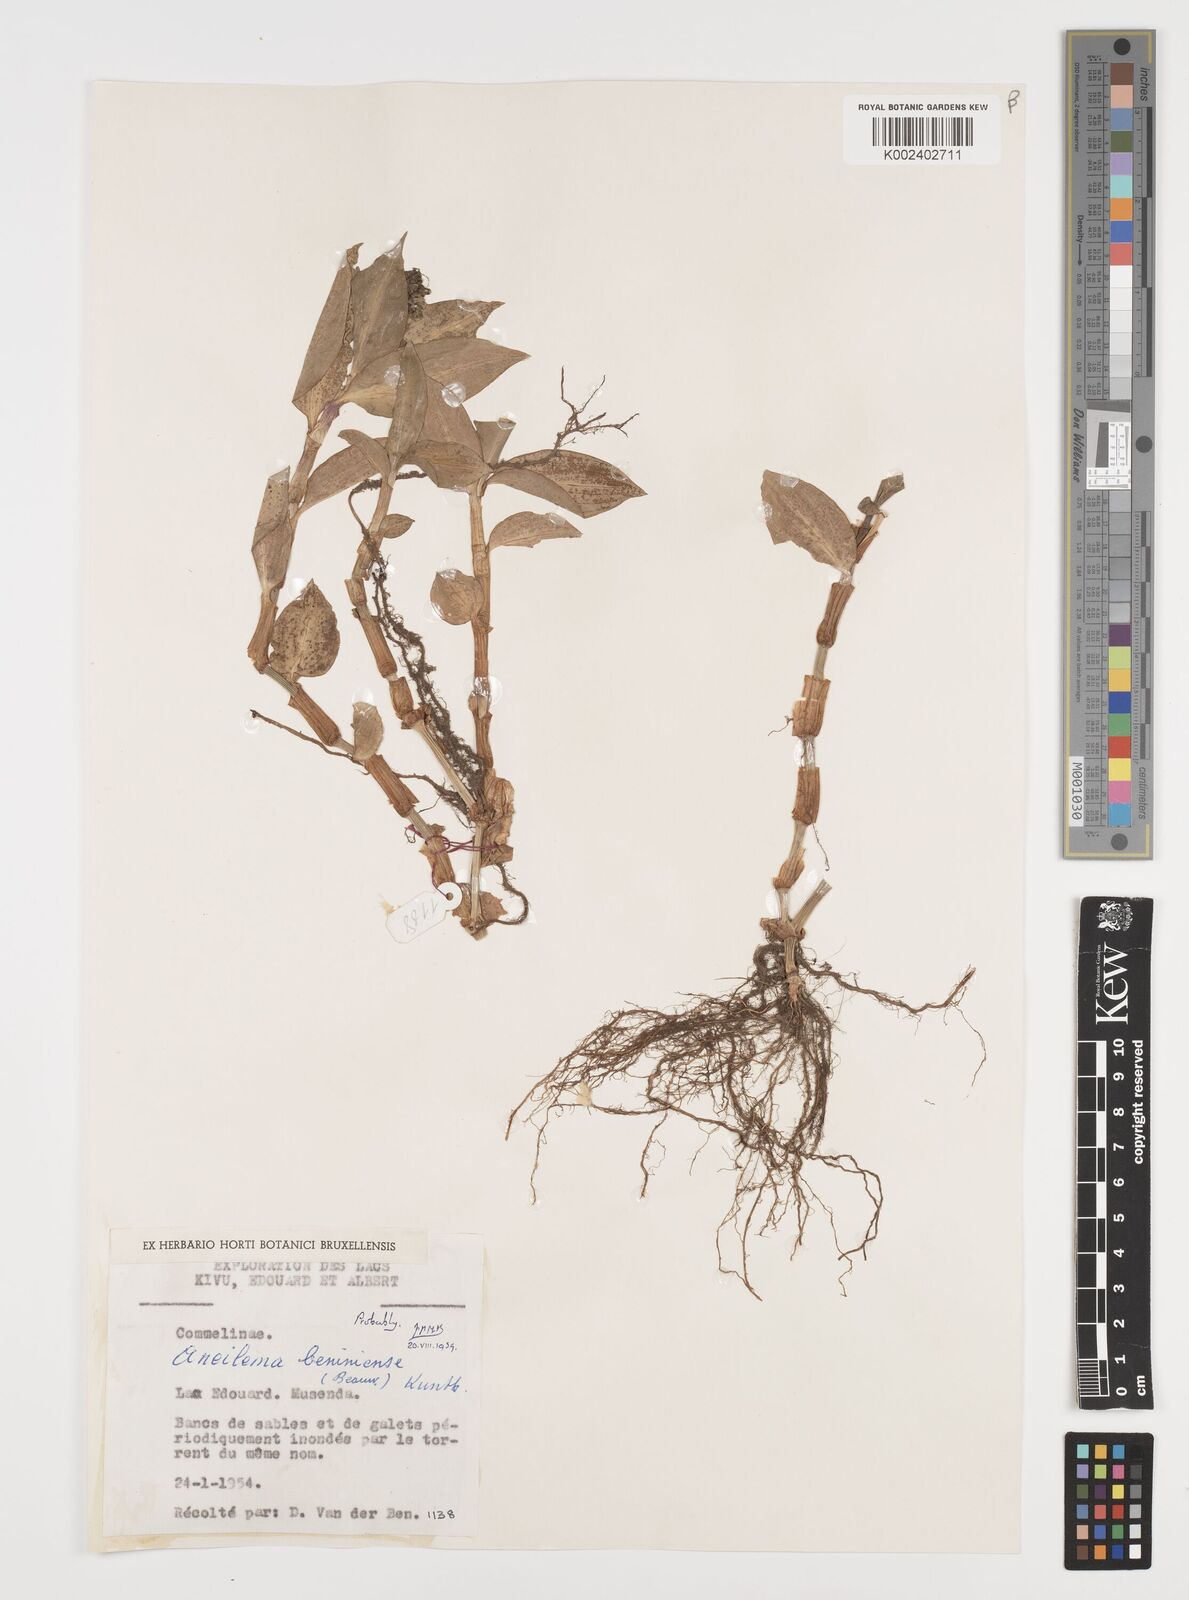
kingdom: Plantae
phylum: Tracheophyta
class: Liliopsida
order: Commelinales
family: Commelinaceae
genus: Aneilema
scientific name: Aneilema beniniense
